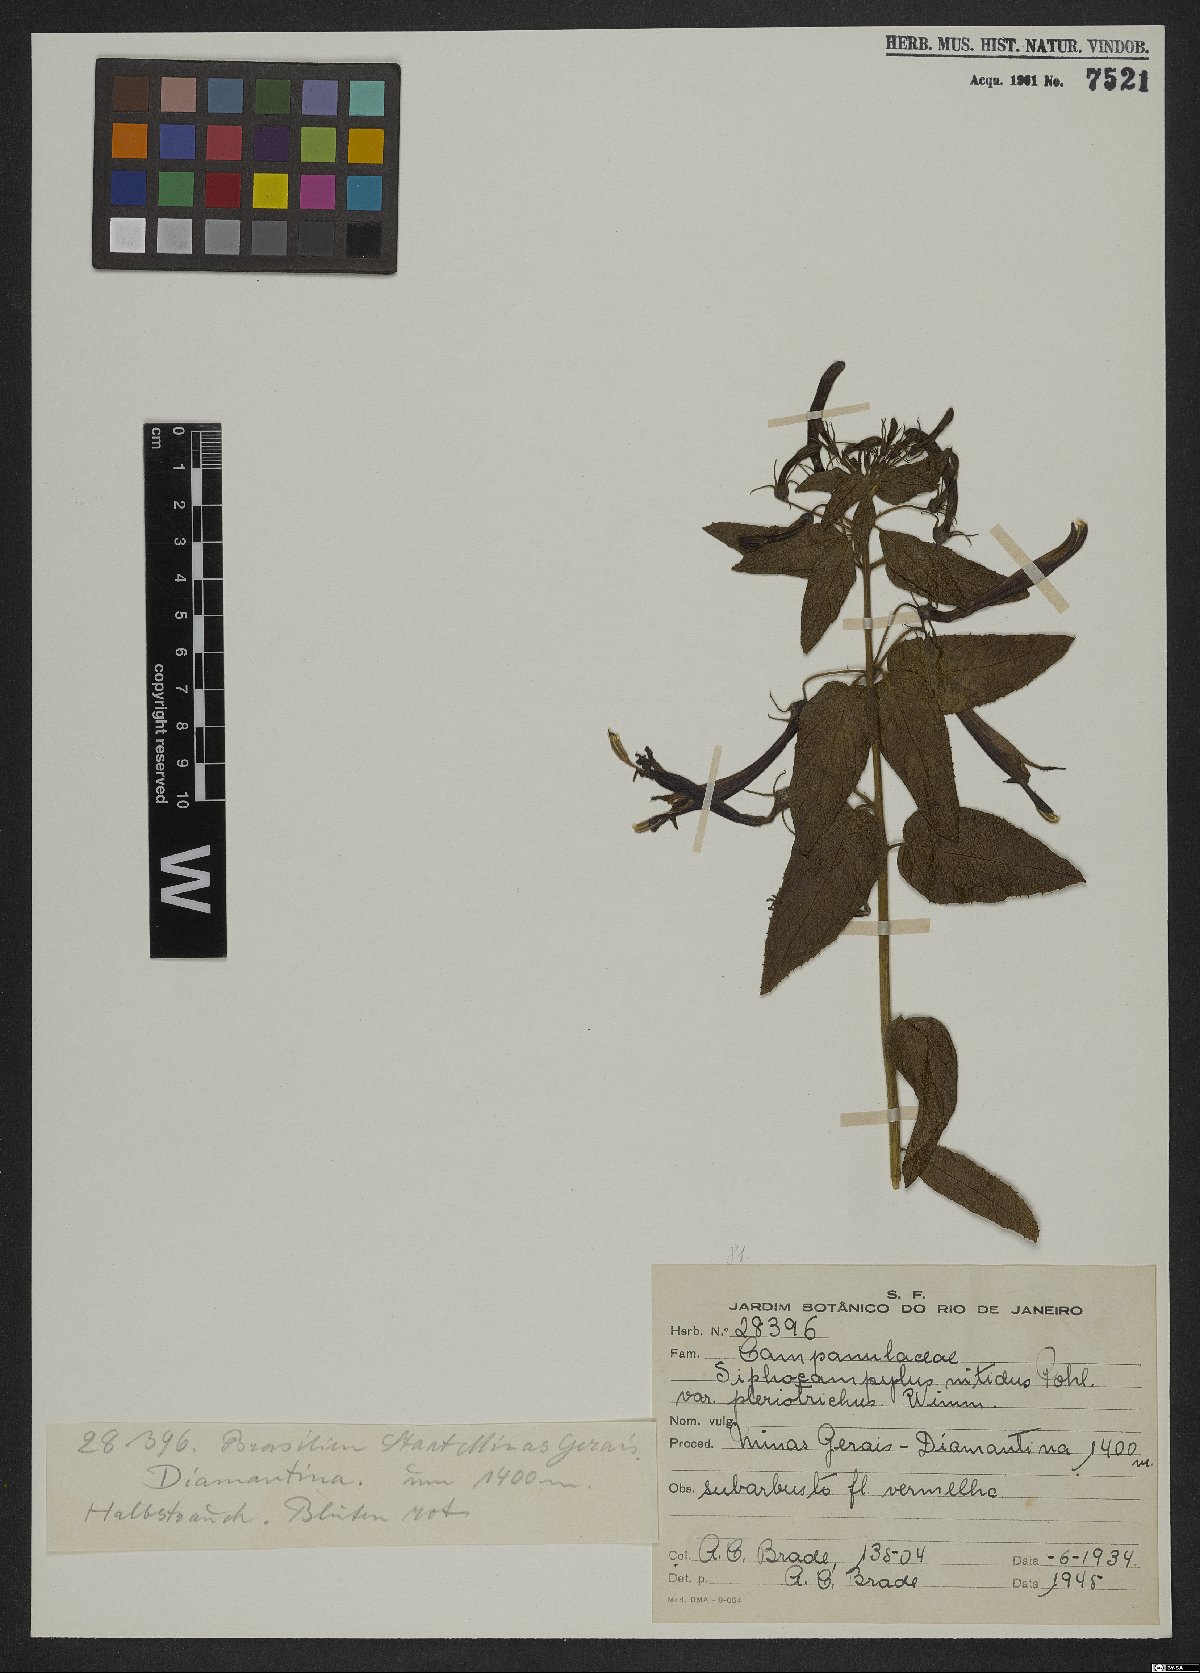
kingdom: Plantae
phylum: Tracheophyta
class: Magnoliopsida
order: Asterales
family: Campanulaceae
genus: Siphocampylus
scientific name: Siphocampylus nitidus
